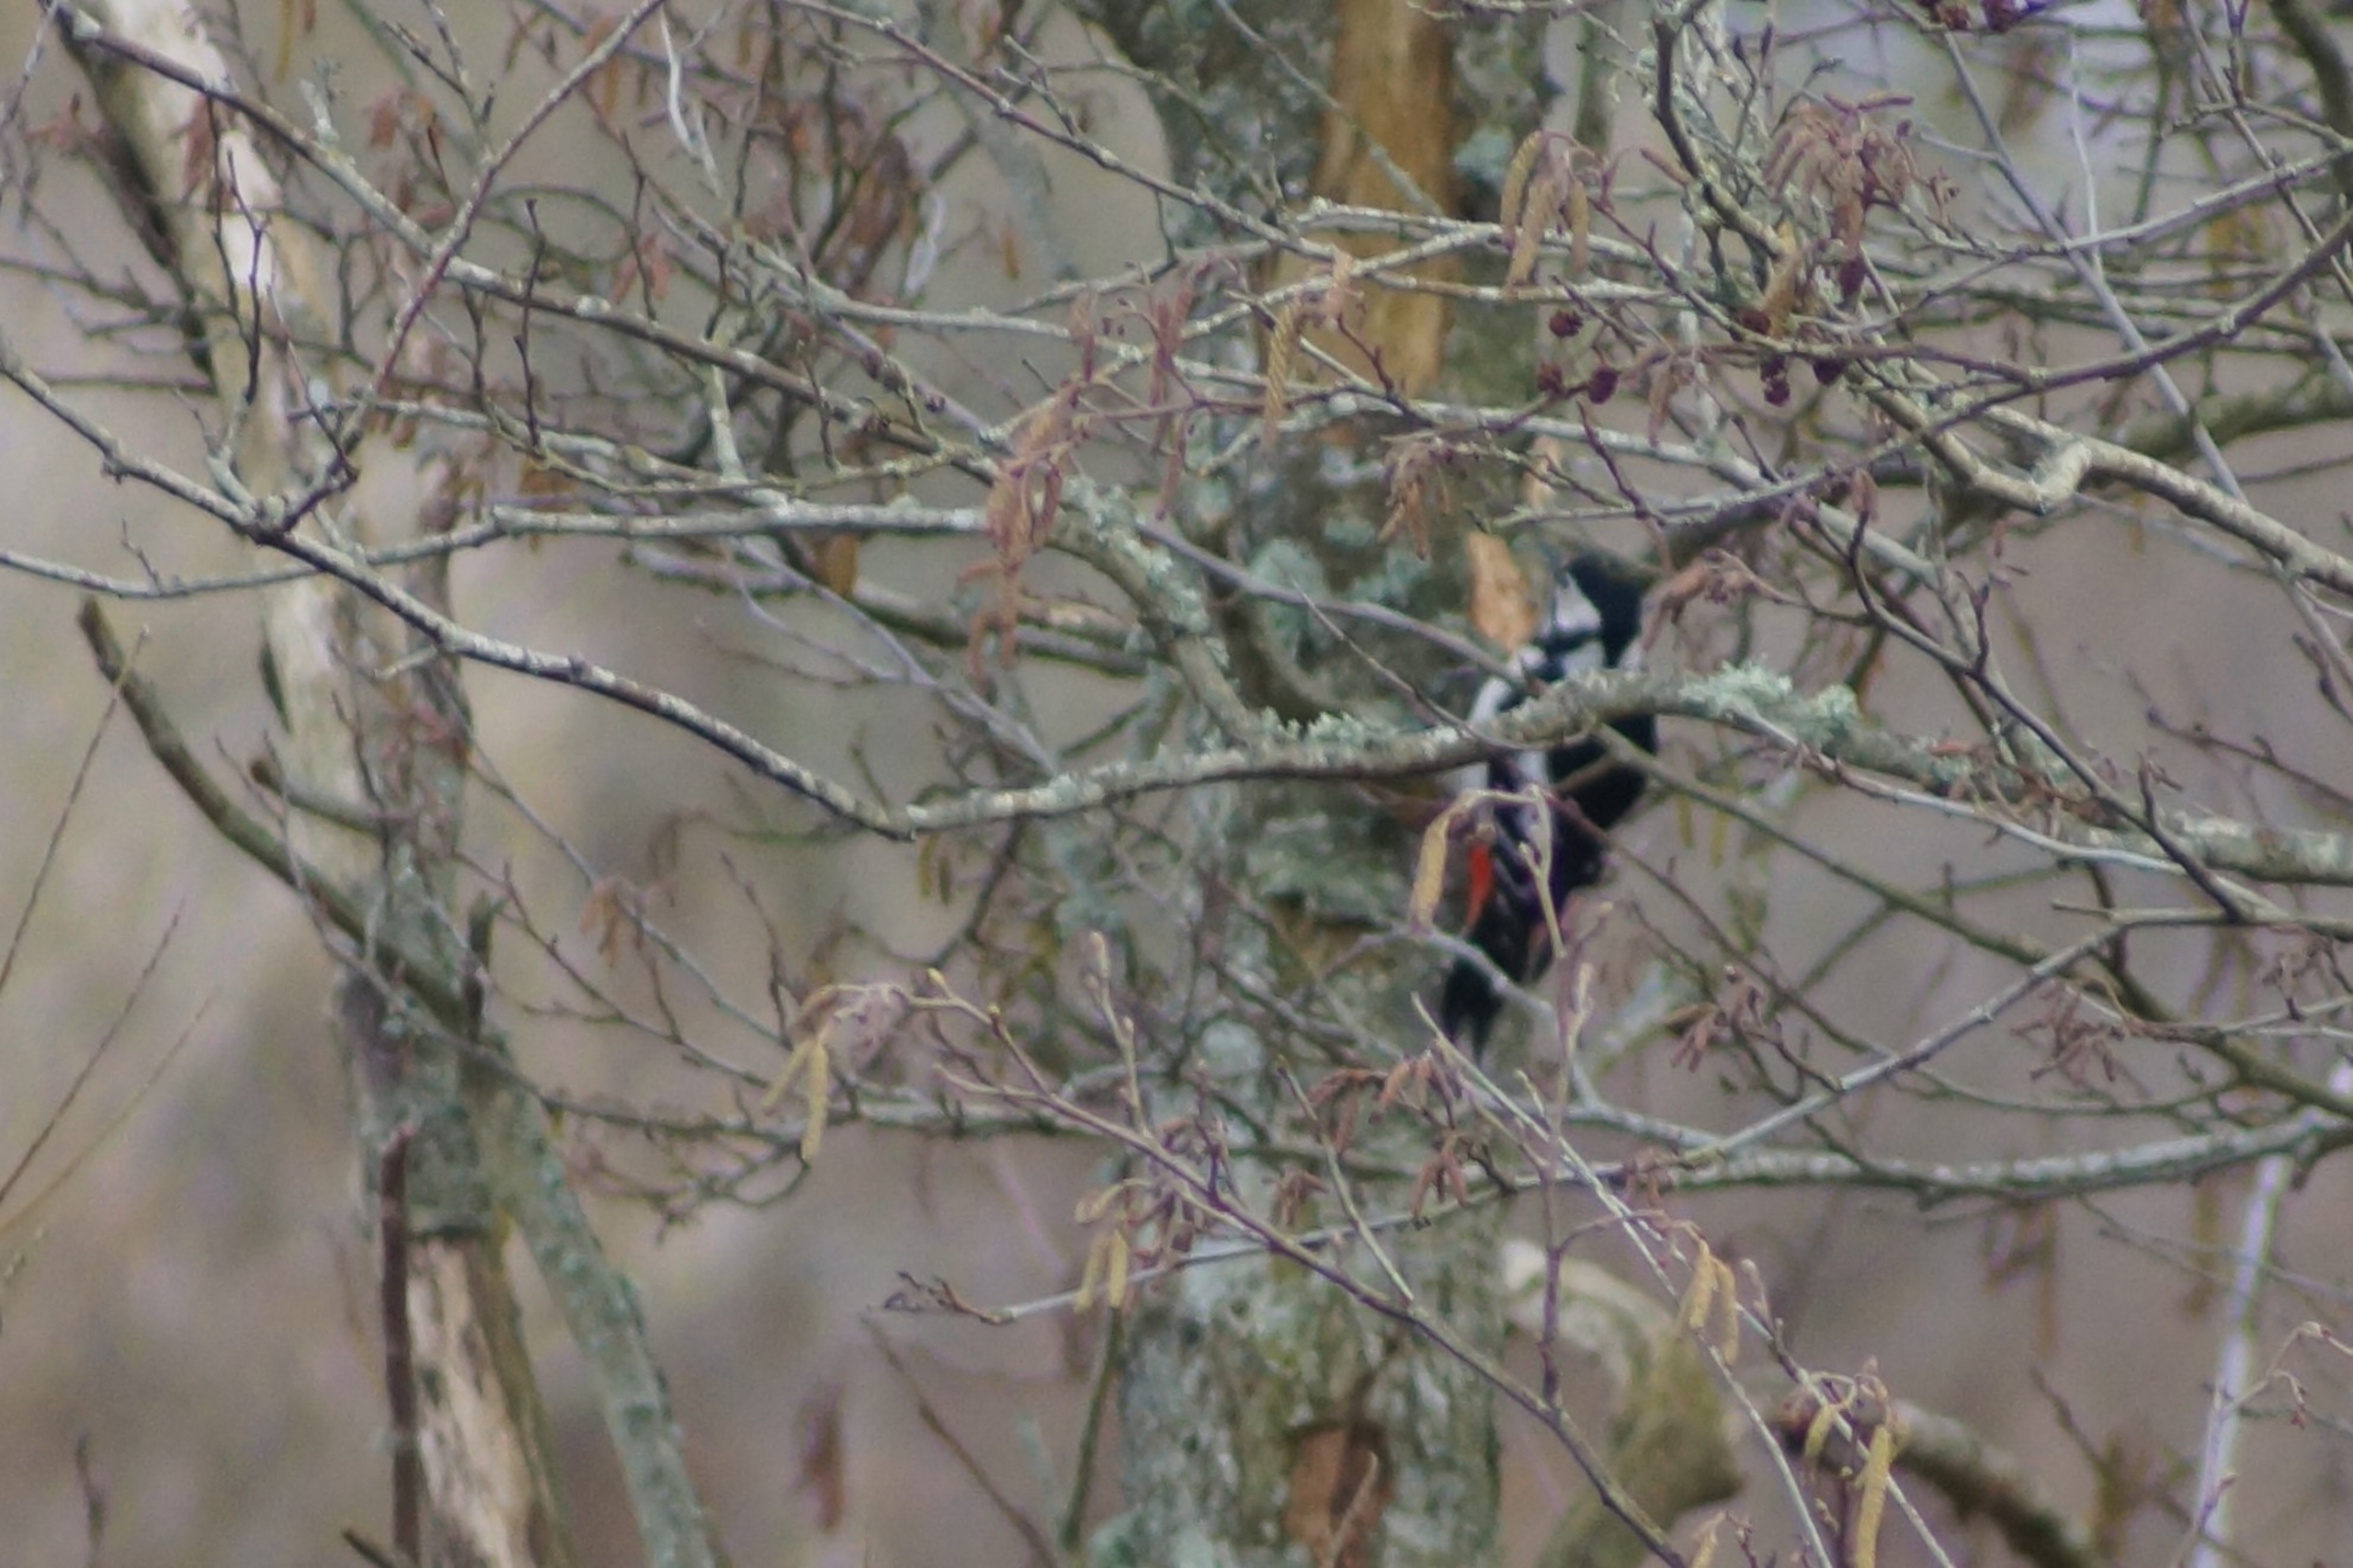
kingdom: Animalia
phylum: Chordata
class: Aves
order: Piciformes
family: Picidae
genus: Dendrocopos
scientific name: Dendrocopos major
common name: Stor flagspætte
